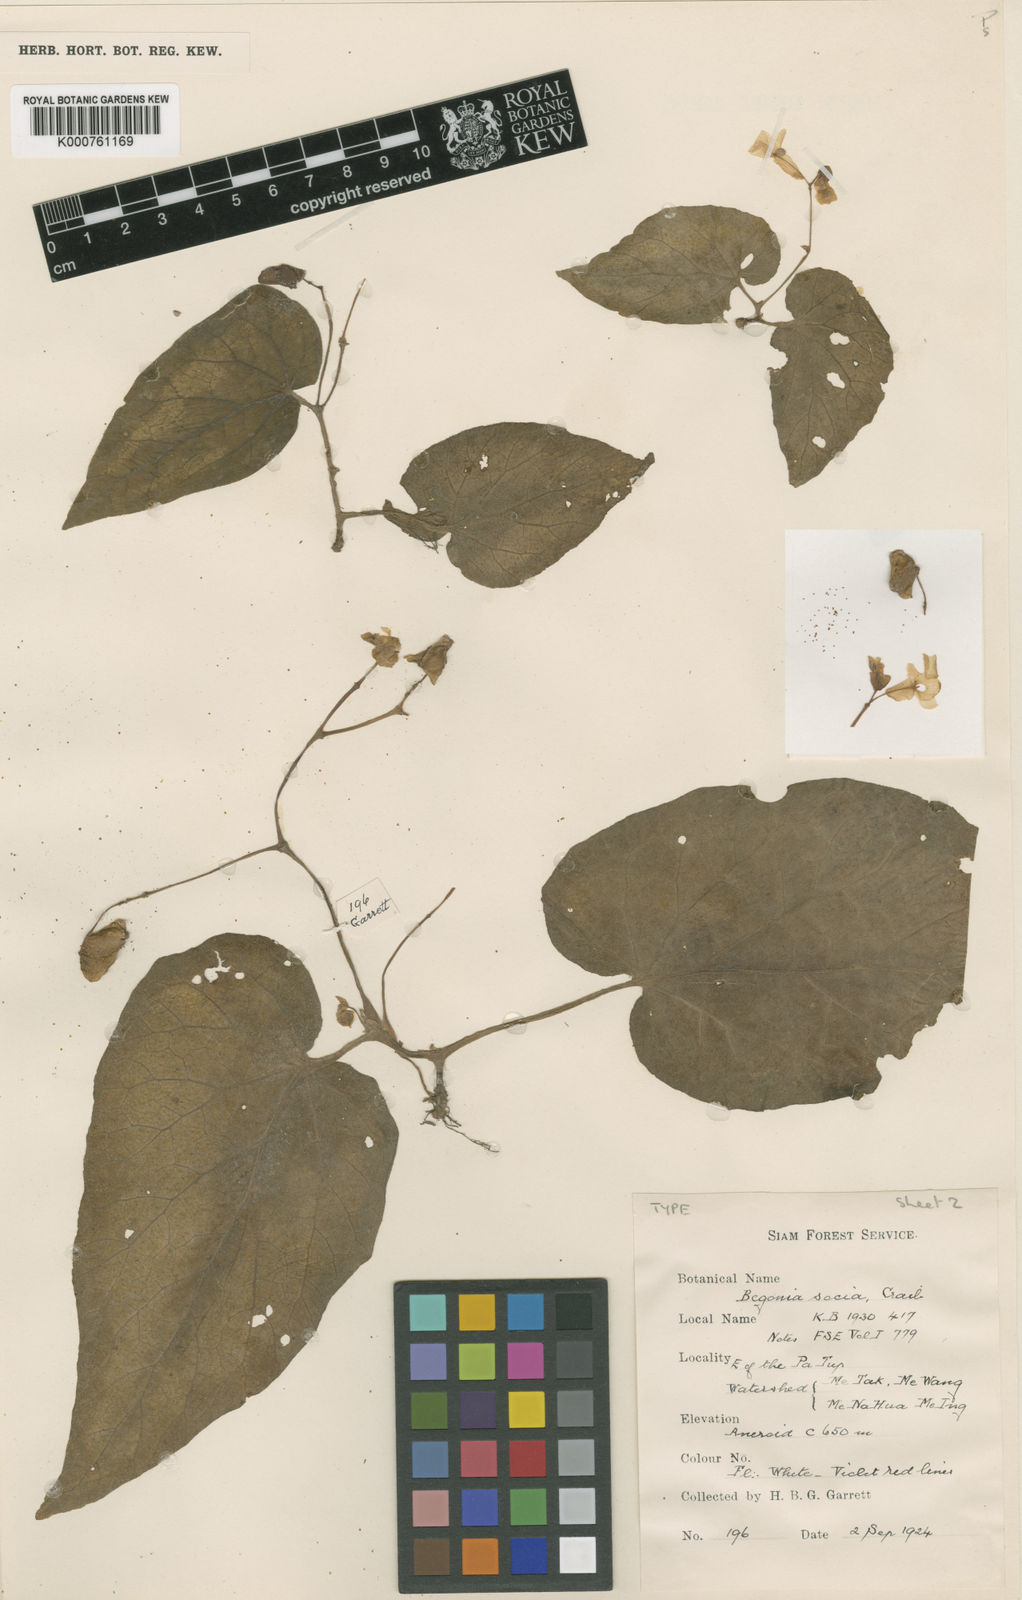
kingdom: Plantae
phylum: Tracheophyta
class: Magnoliopsida
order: Cucurbitales
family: Begoniaceae
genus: Begonia
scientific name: Begonia integrifolia
